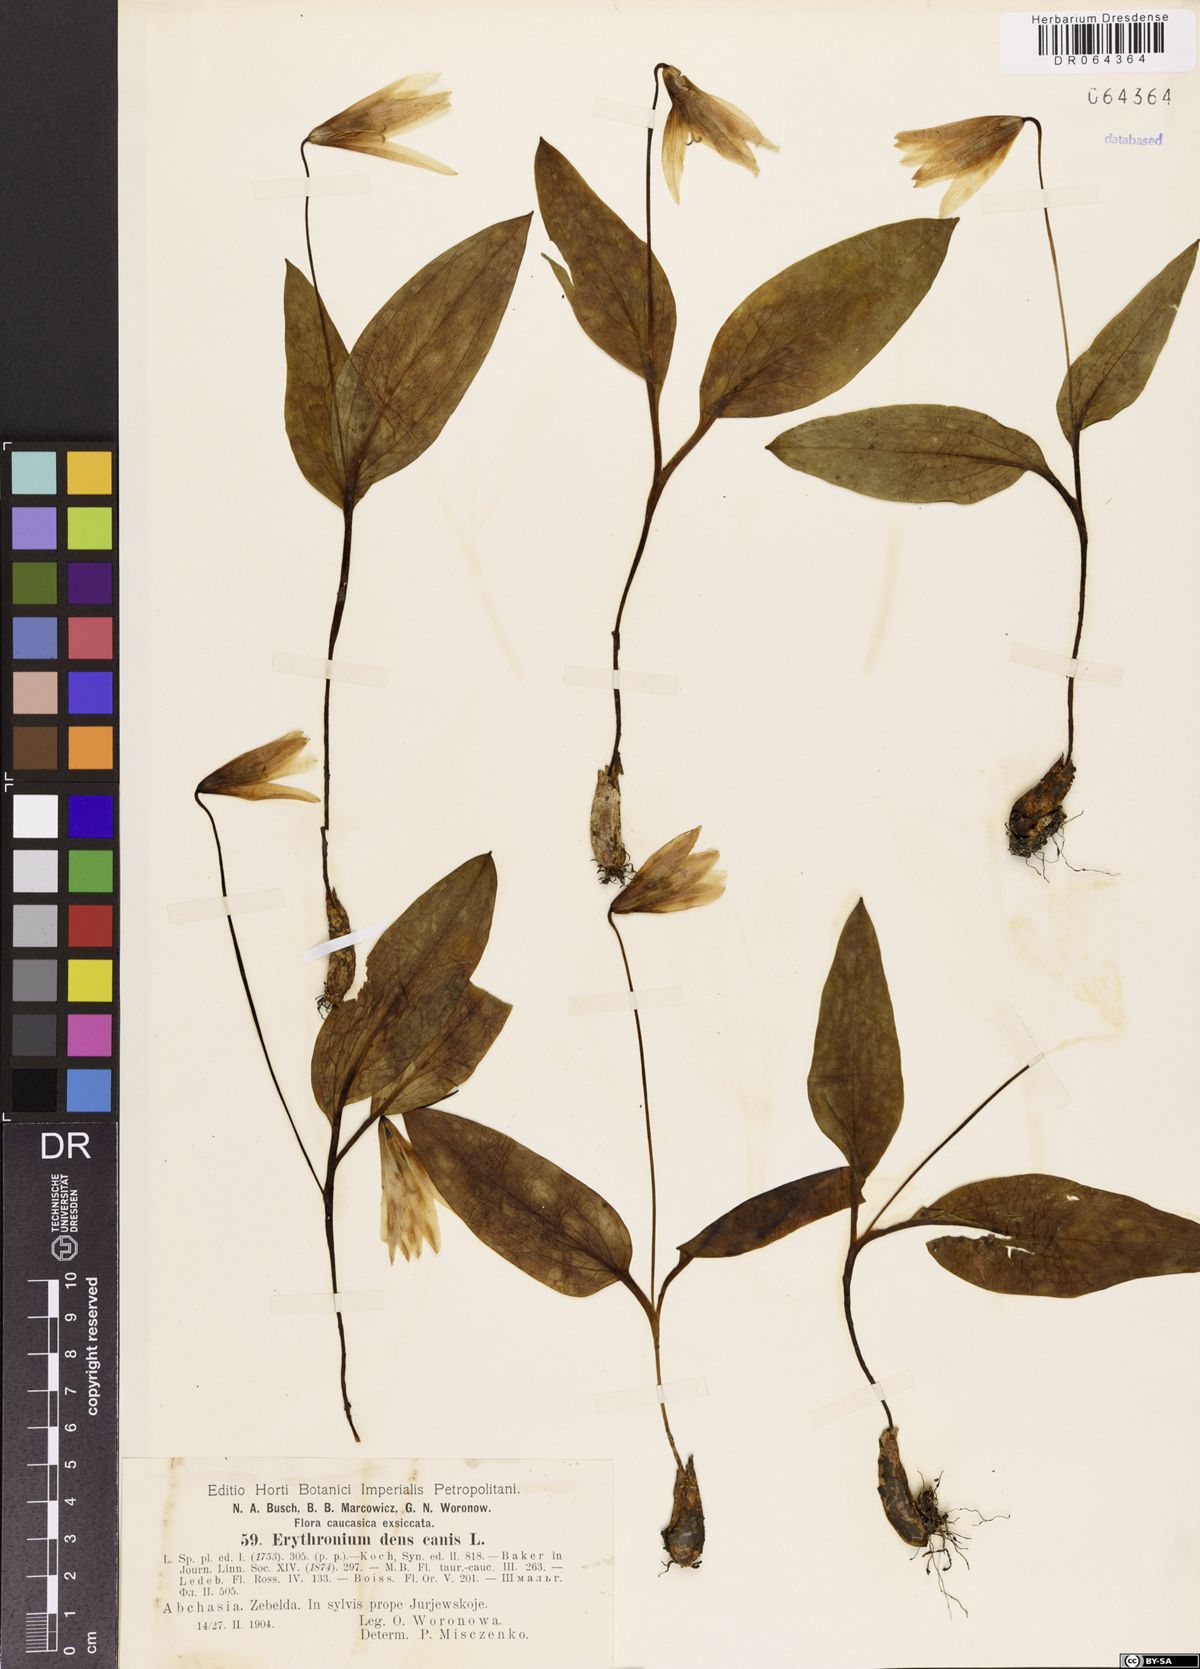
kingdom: Plantae
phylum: Tracheophyta
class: Liliopsida
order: Liliales
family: Liliaceae
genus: Erythronium
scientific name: Erythronium dens-canis
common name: Dog's-tooth-violet
